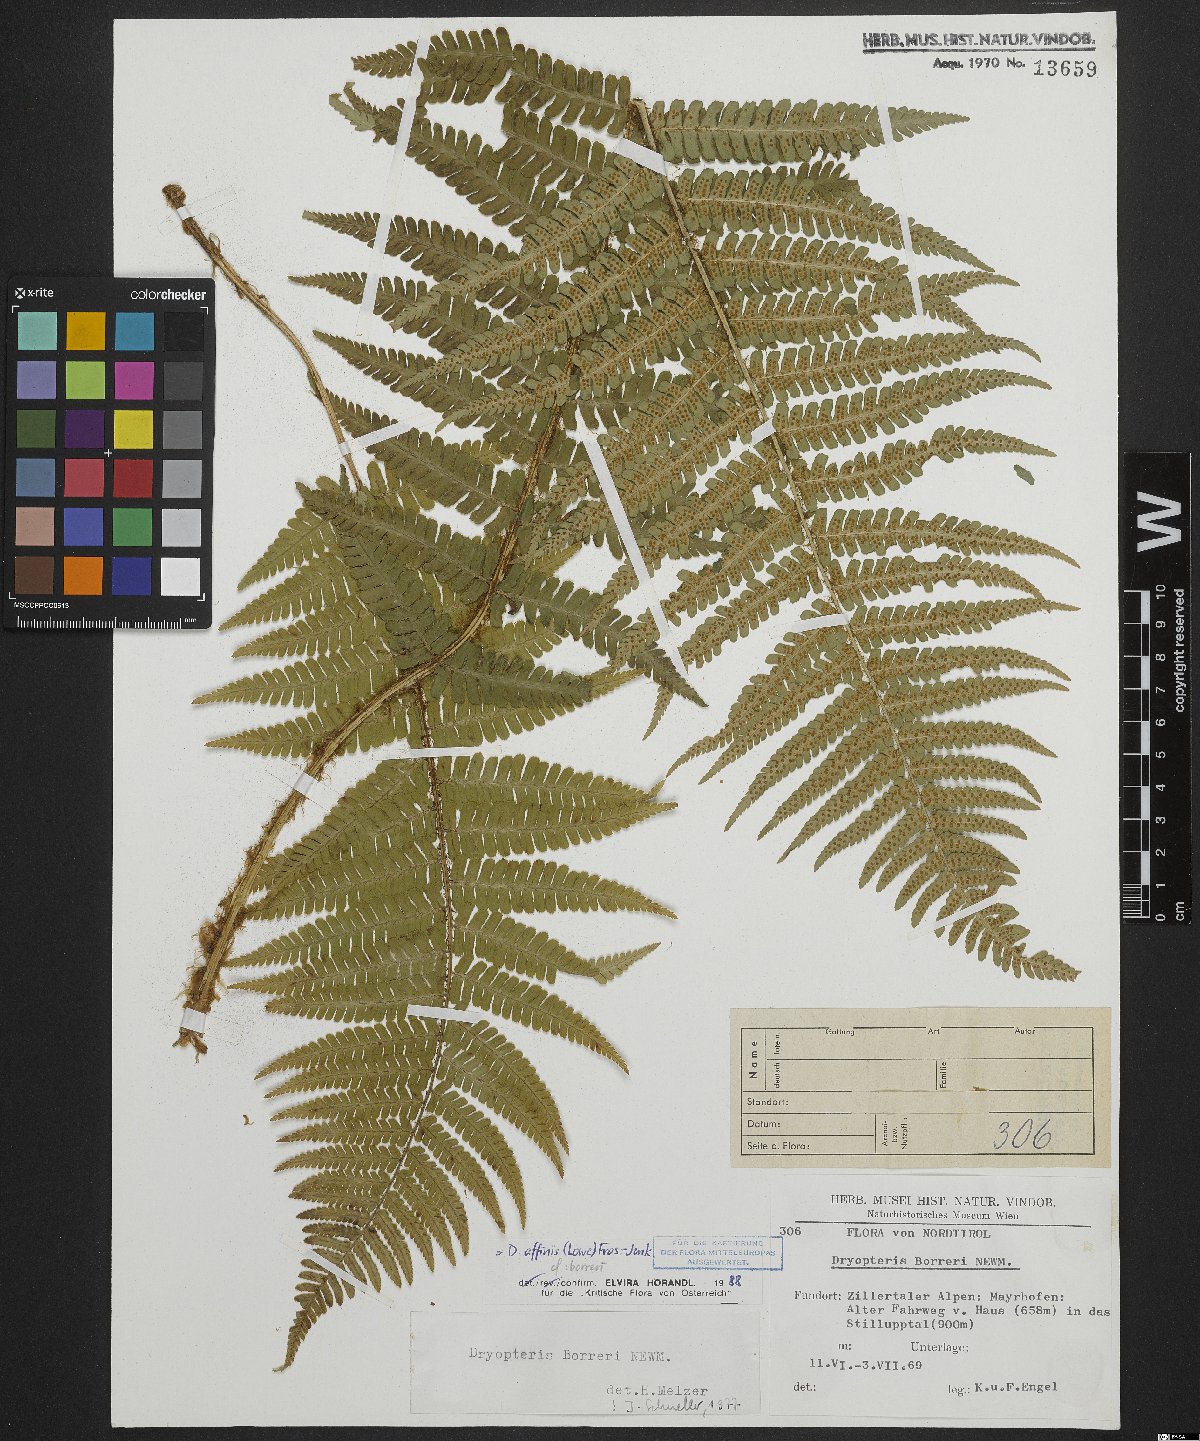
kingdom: Plantae
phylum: Tracheophyta
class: Polypodiopsida
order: Polypodiales
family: Dryopteridaceae
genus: Dryopteris
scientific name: Dryopteris borreri
